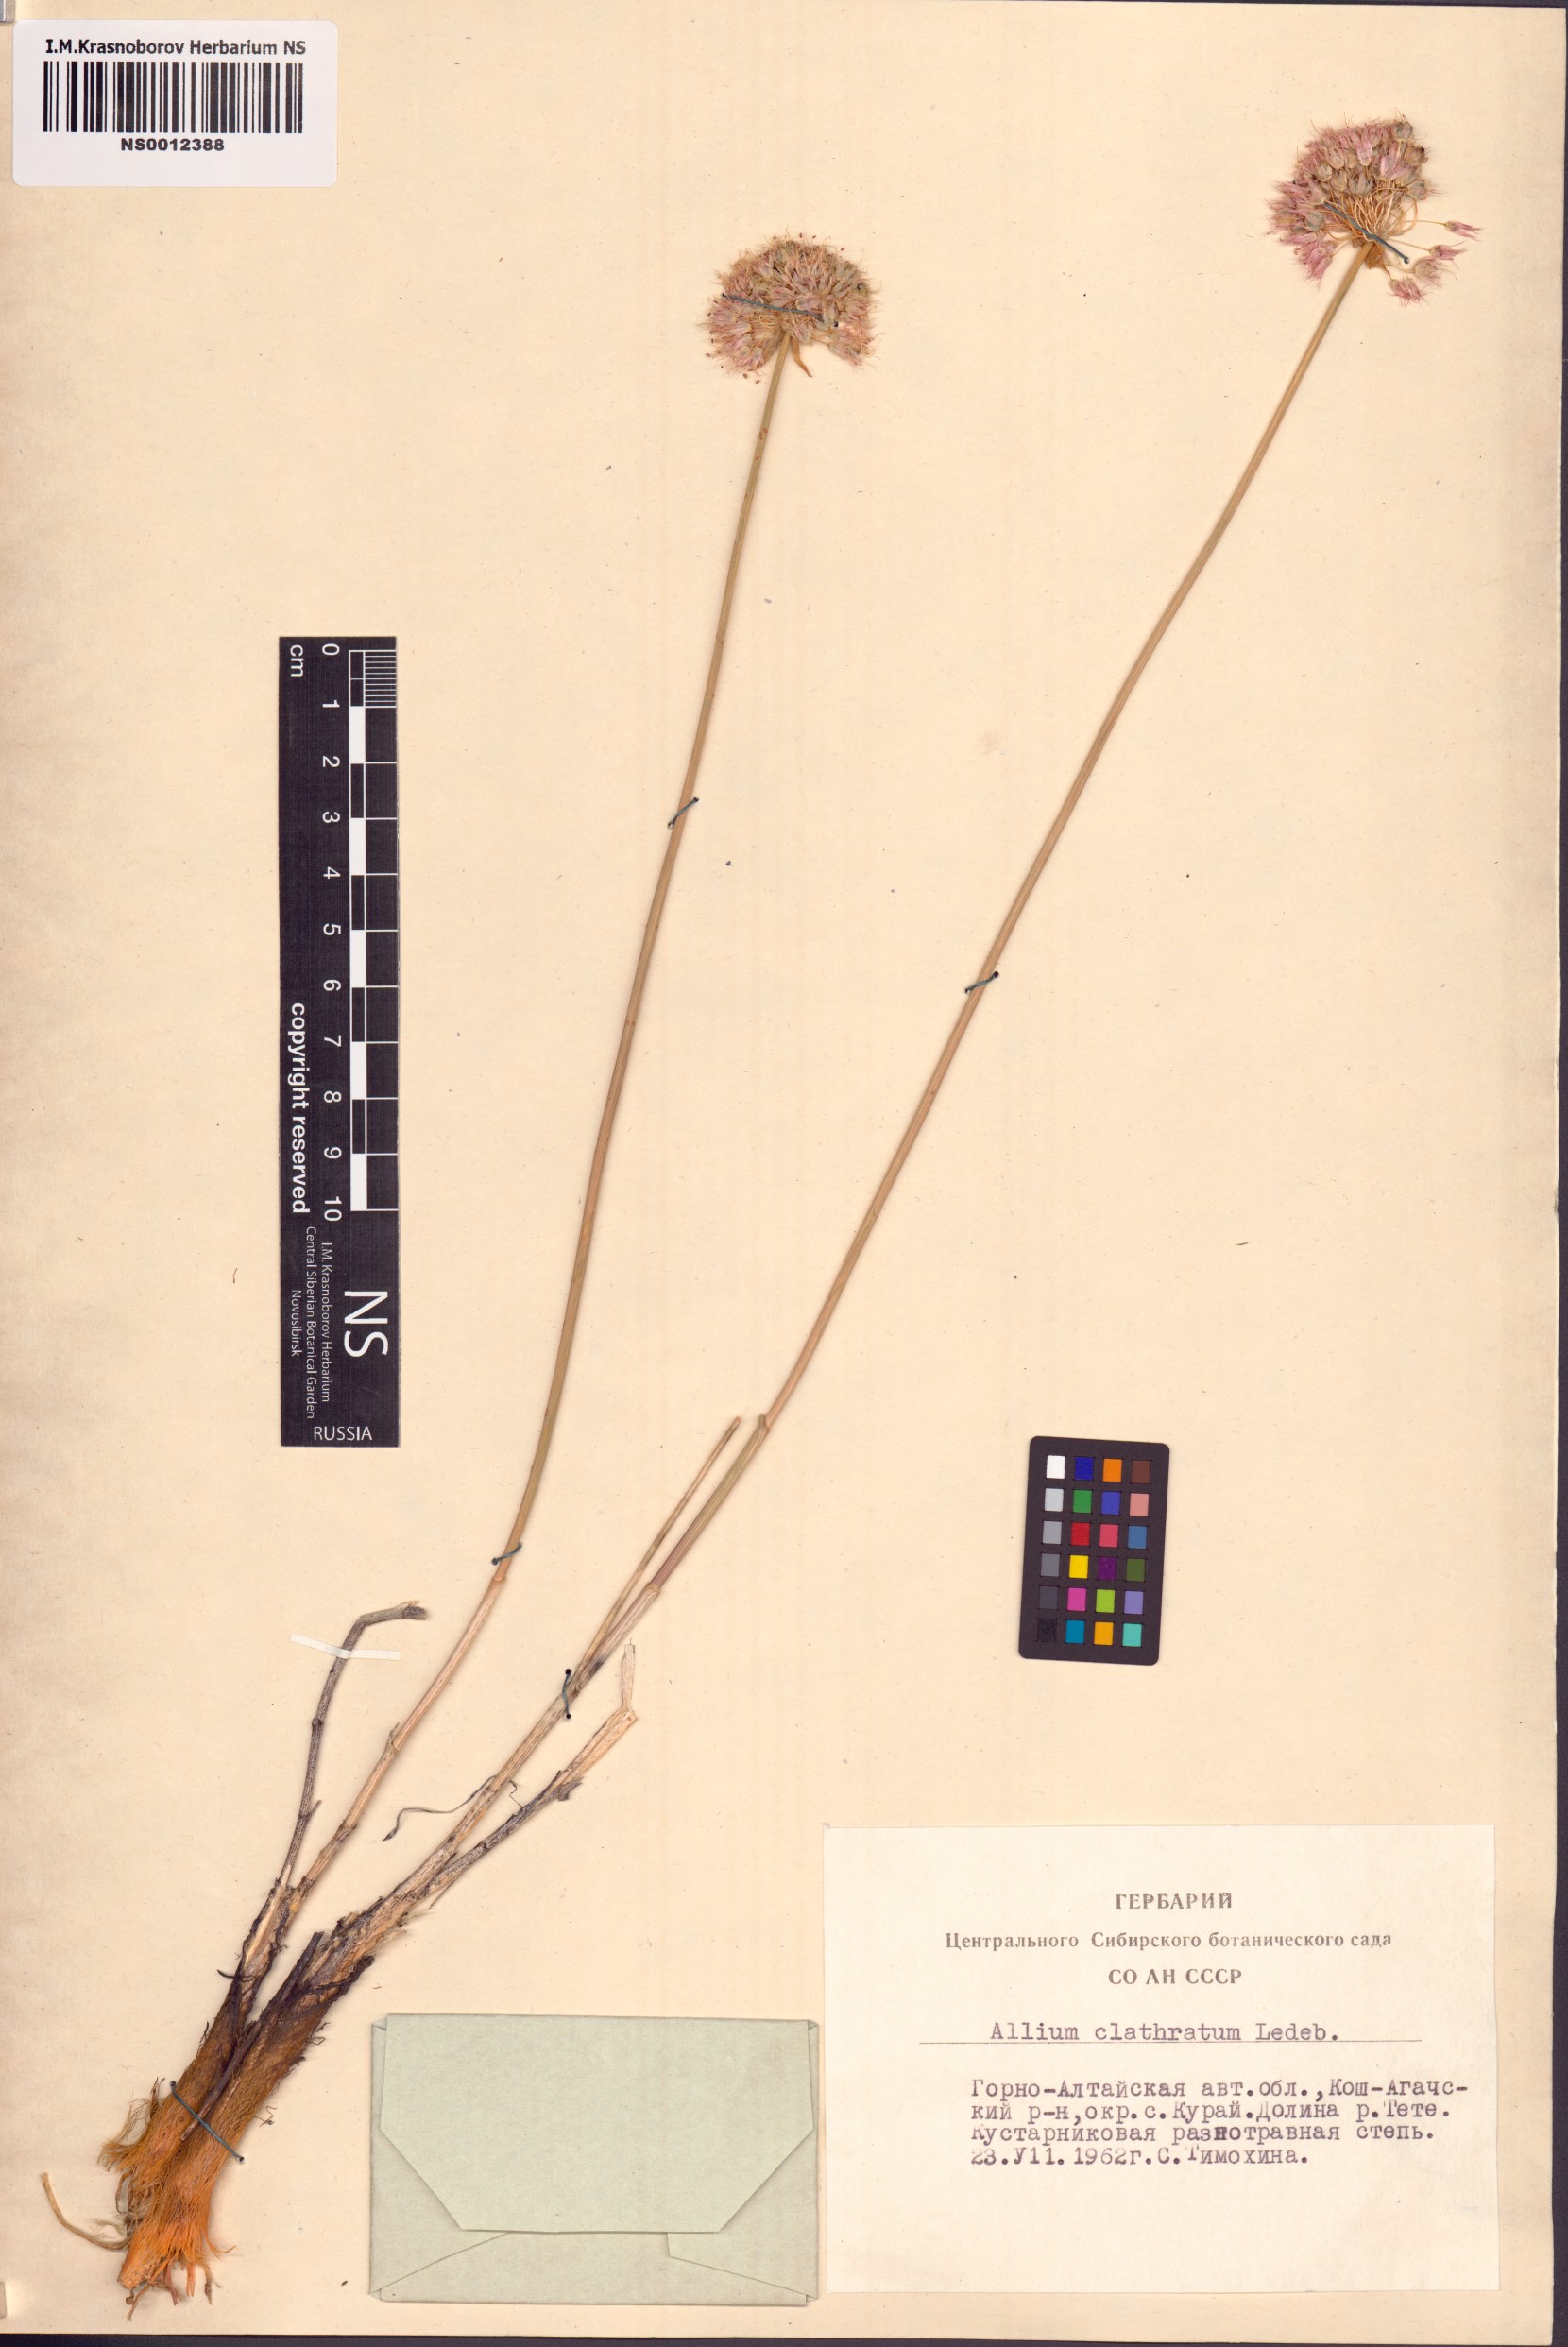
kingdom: Plantae
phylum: Tracheophyta
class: Liliopsida
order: Asparagales
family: Amaryllidaceae
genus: Allium
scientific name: Allium clathratum
